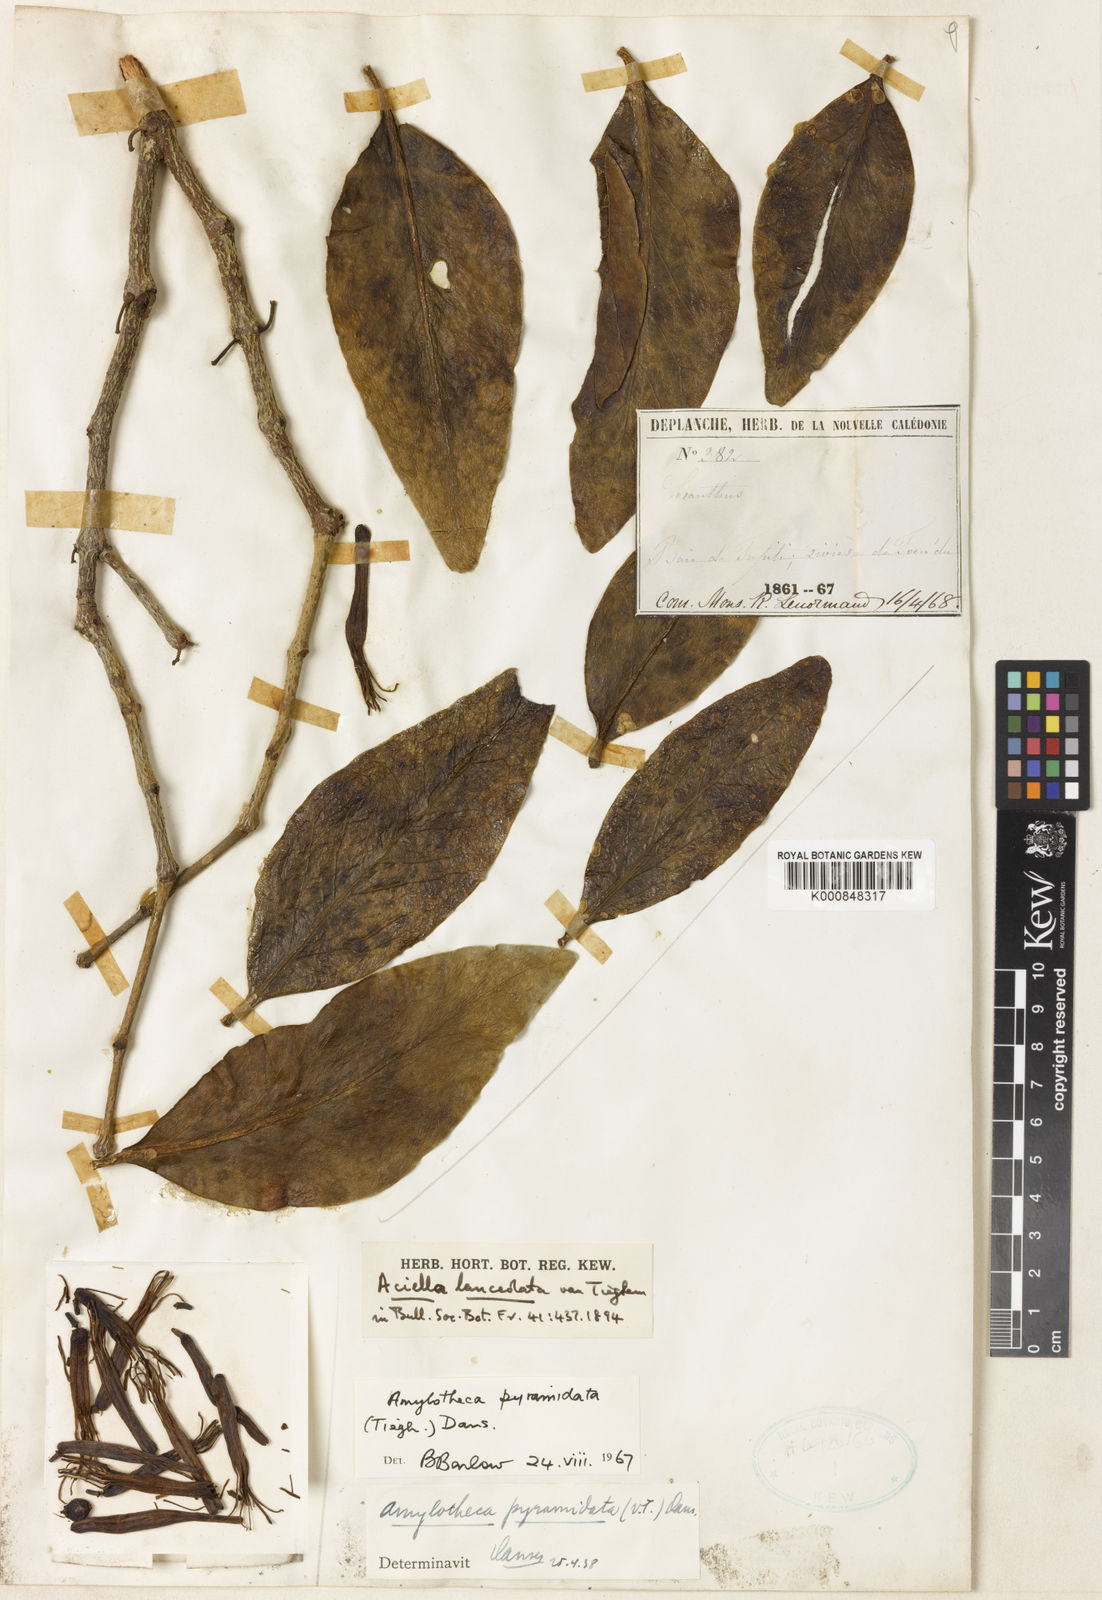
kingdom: Plantae
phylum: Tracheophyta
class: Magnoliopsida
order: Santalales
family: Loranthaceae
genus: Amylotheca
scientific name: Amylotheca dictyophleba
